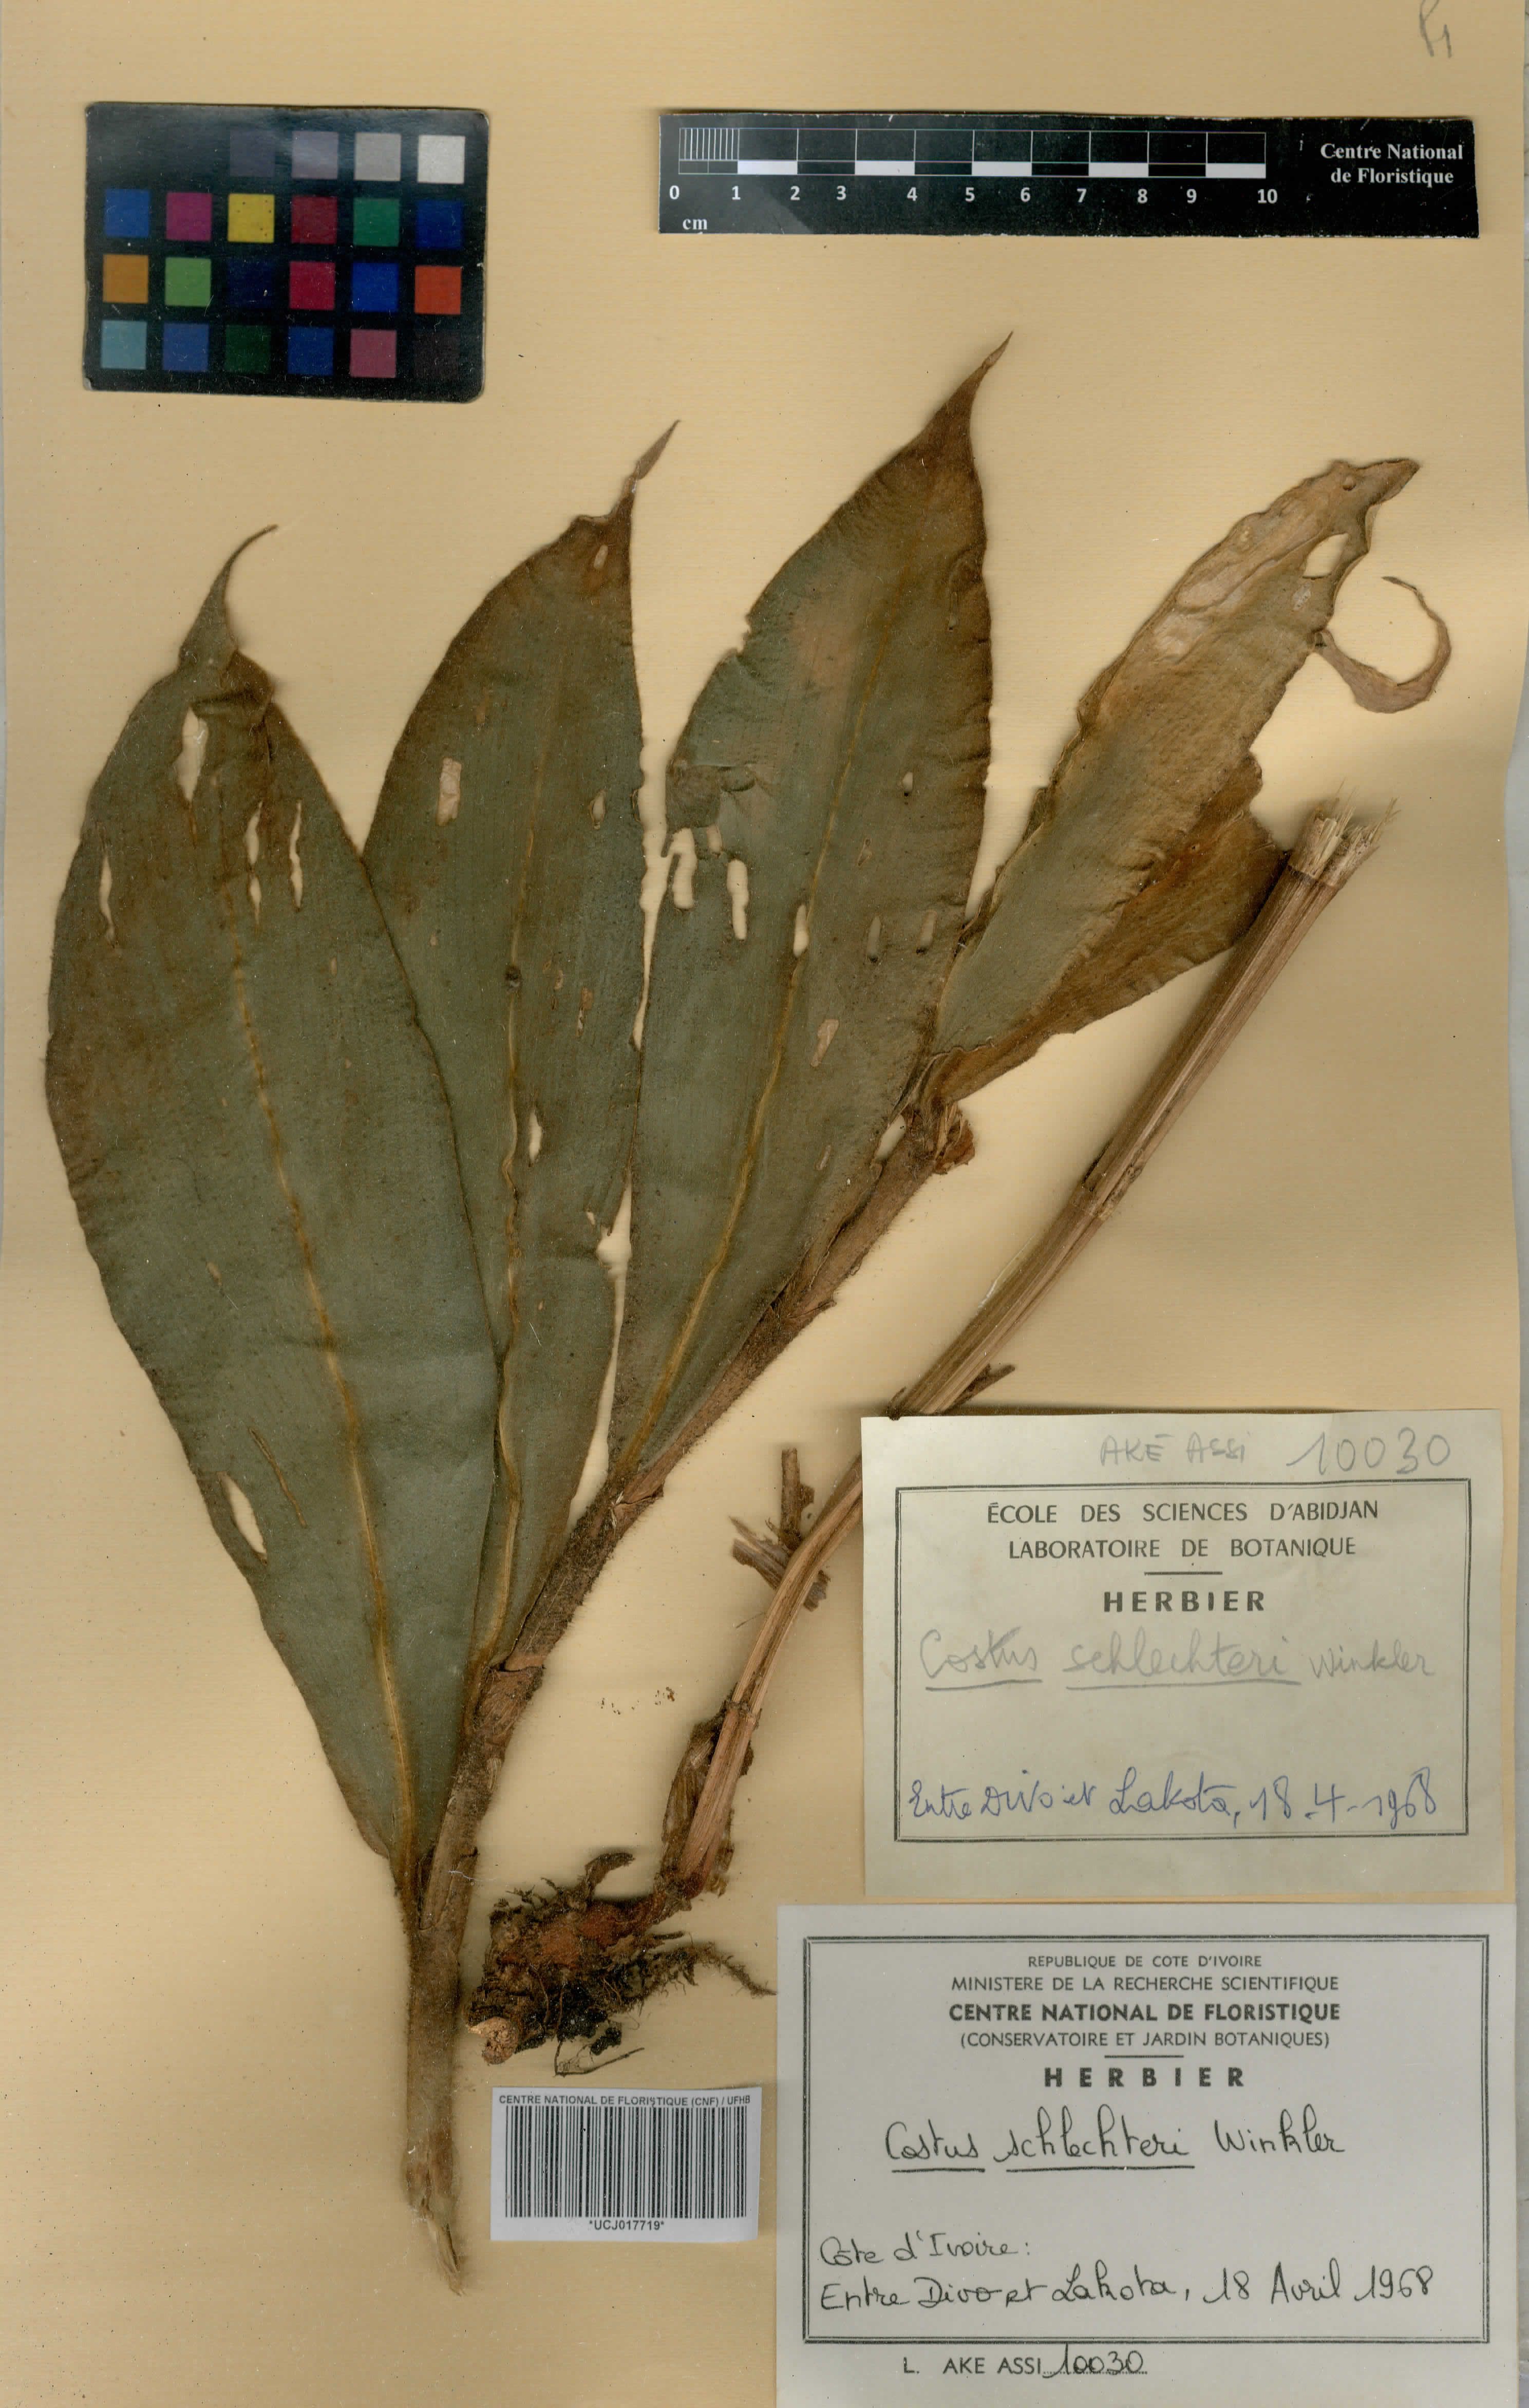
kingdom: Plantae
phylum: Tracheophyta
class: Liliopsida
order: Zingiberales
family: Costaceae
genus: Costus
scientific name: Costus schlechteri
